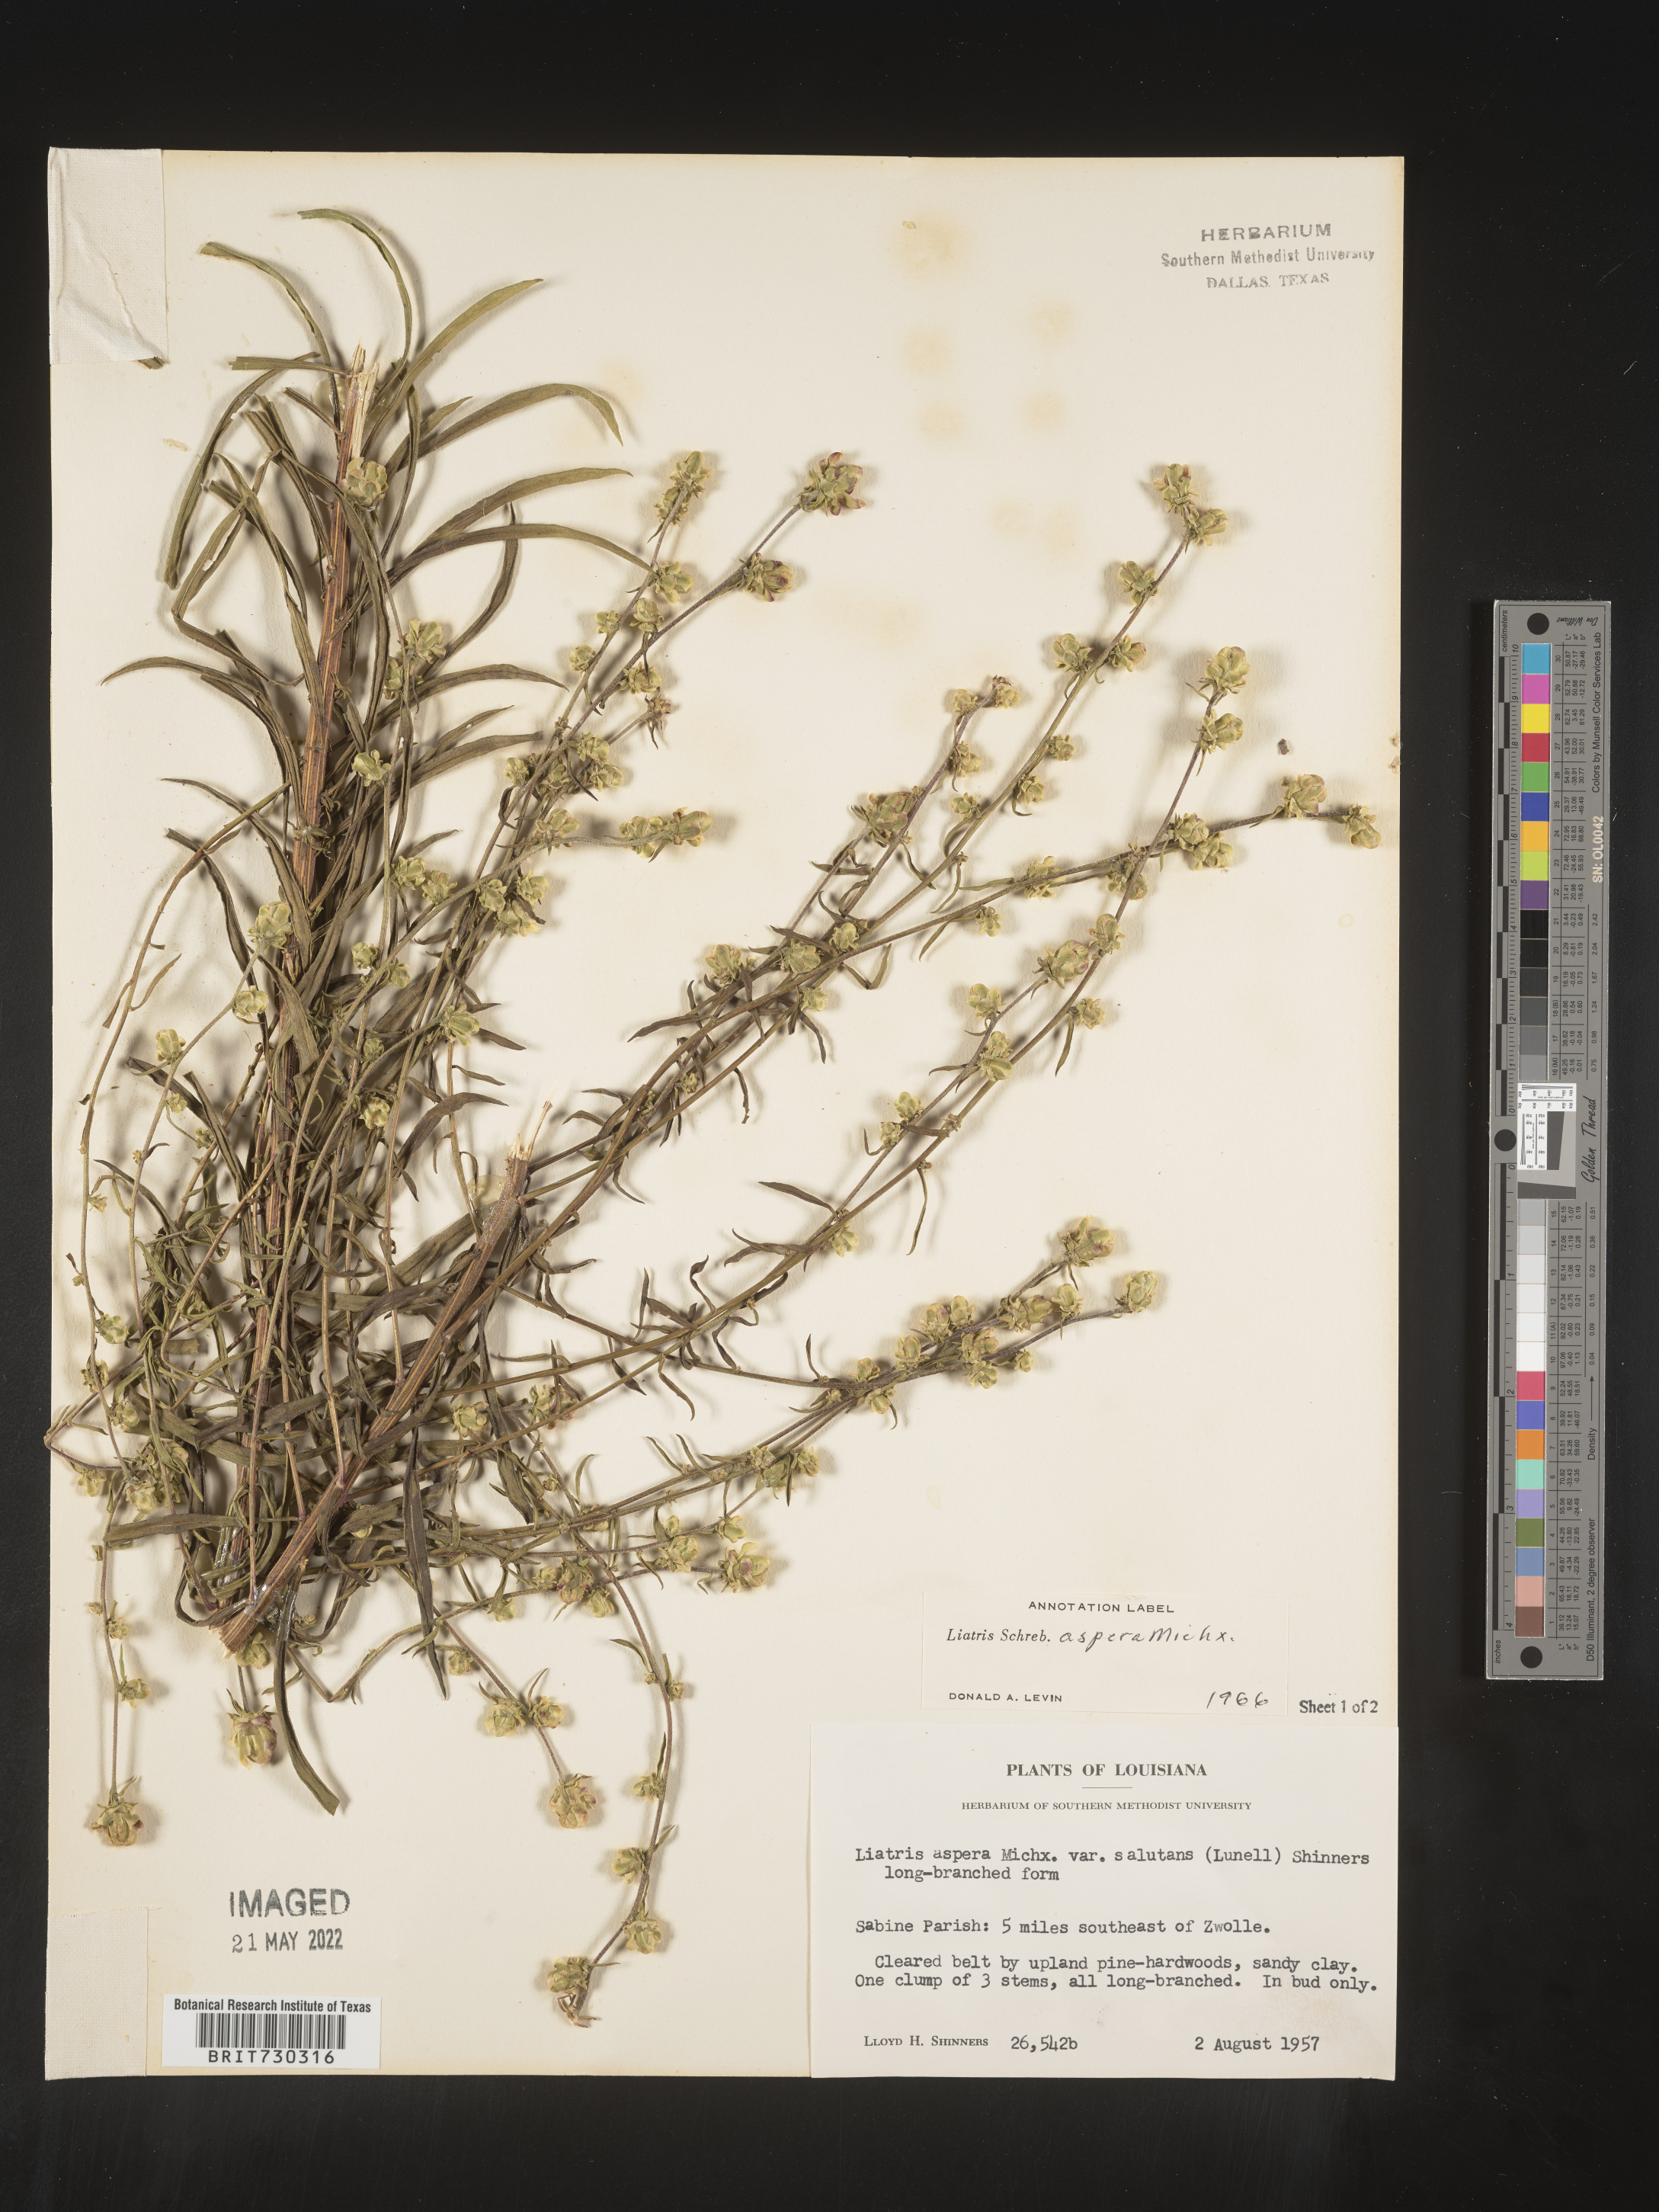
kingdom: Plantae
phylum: Tracheophyta
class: Magnoliopsida
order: Asterales
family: Asteraceae
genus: Liatris
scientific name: Liatris aspera
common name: Lacerate blazing-star
